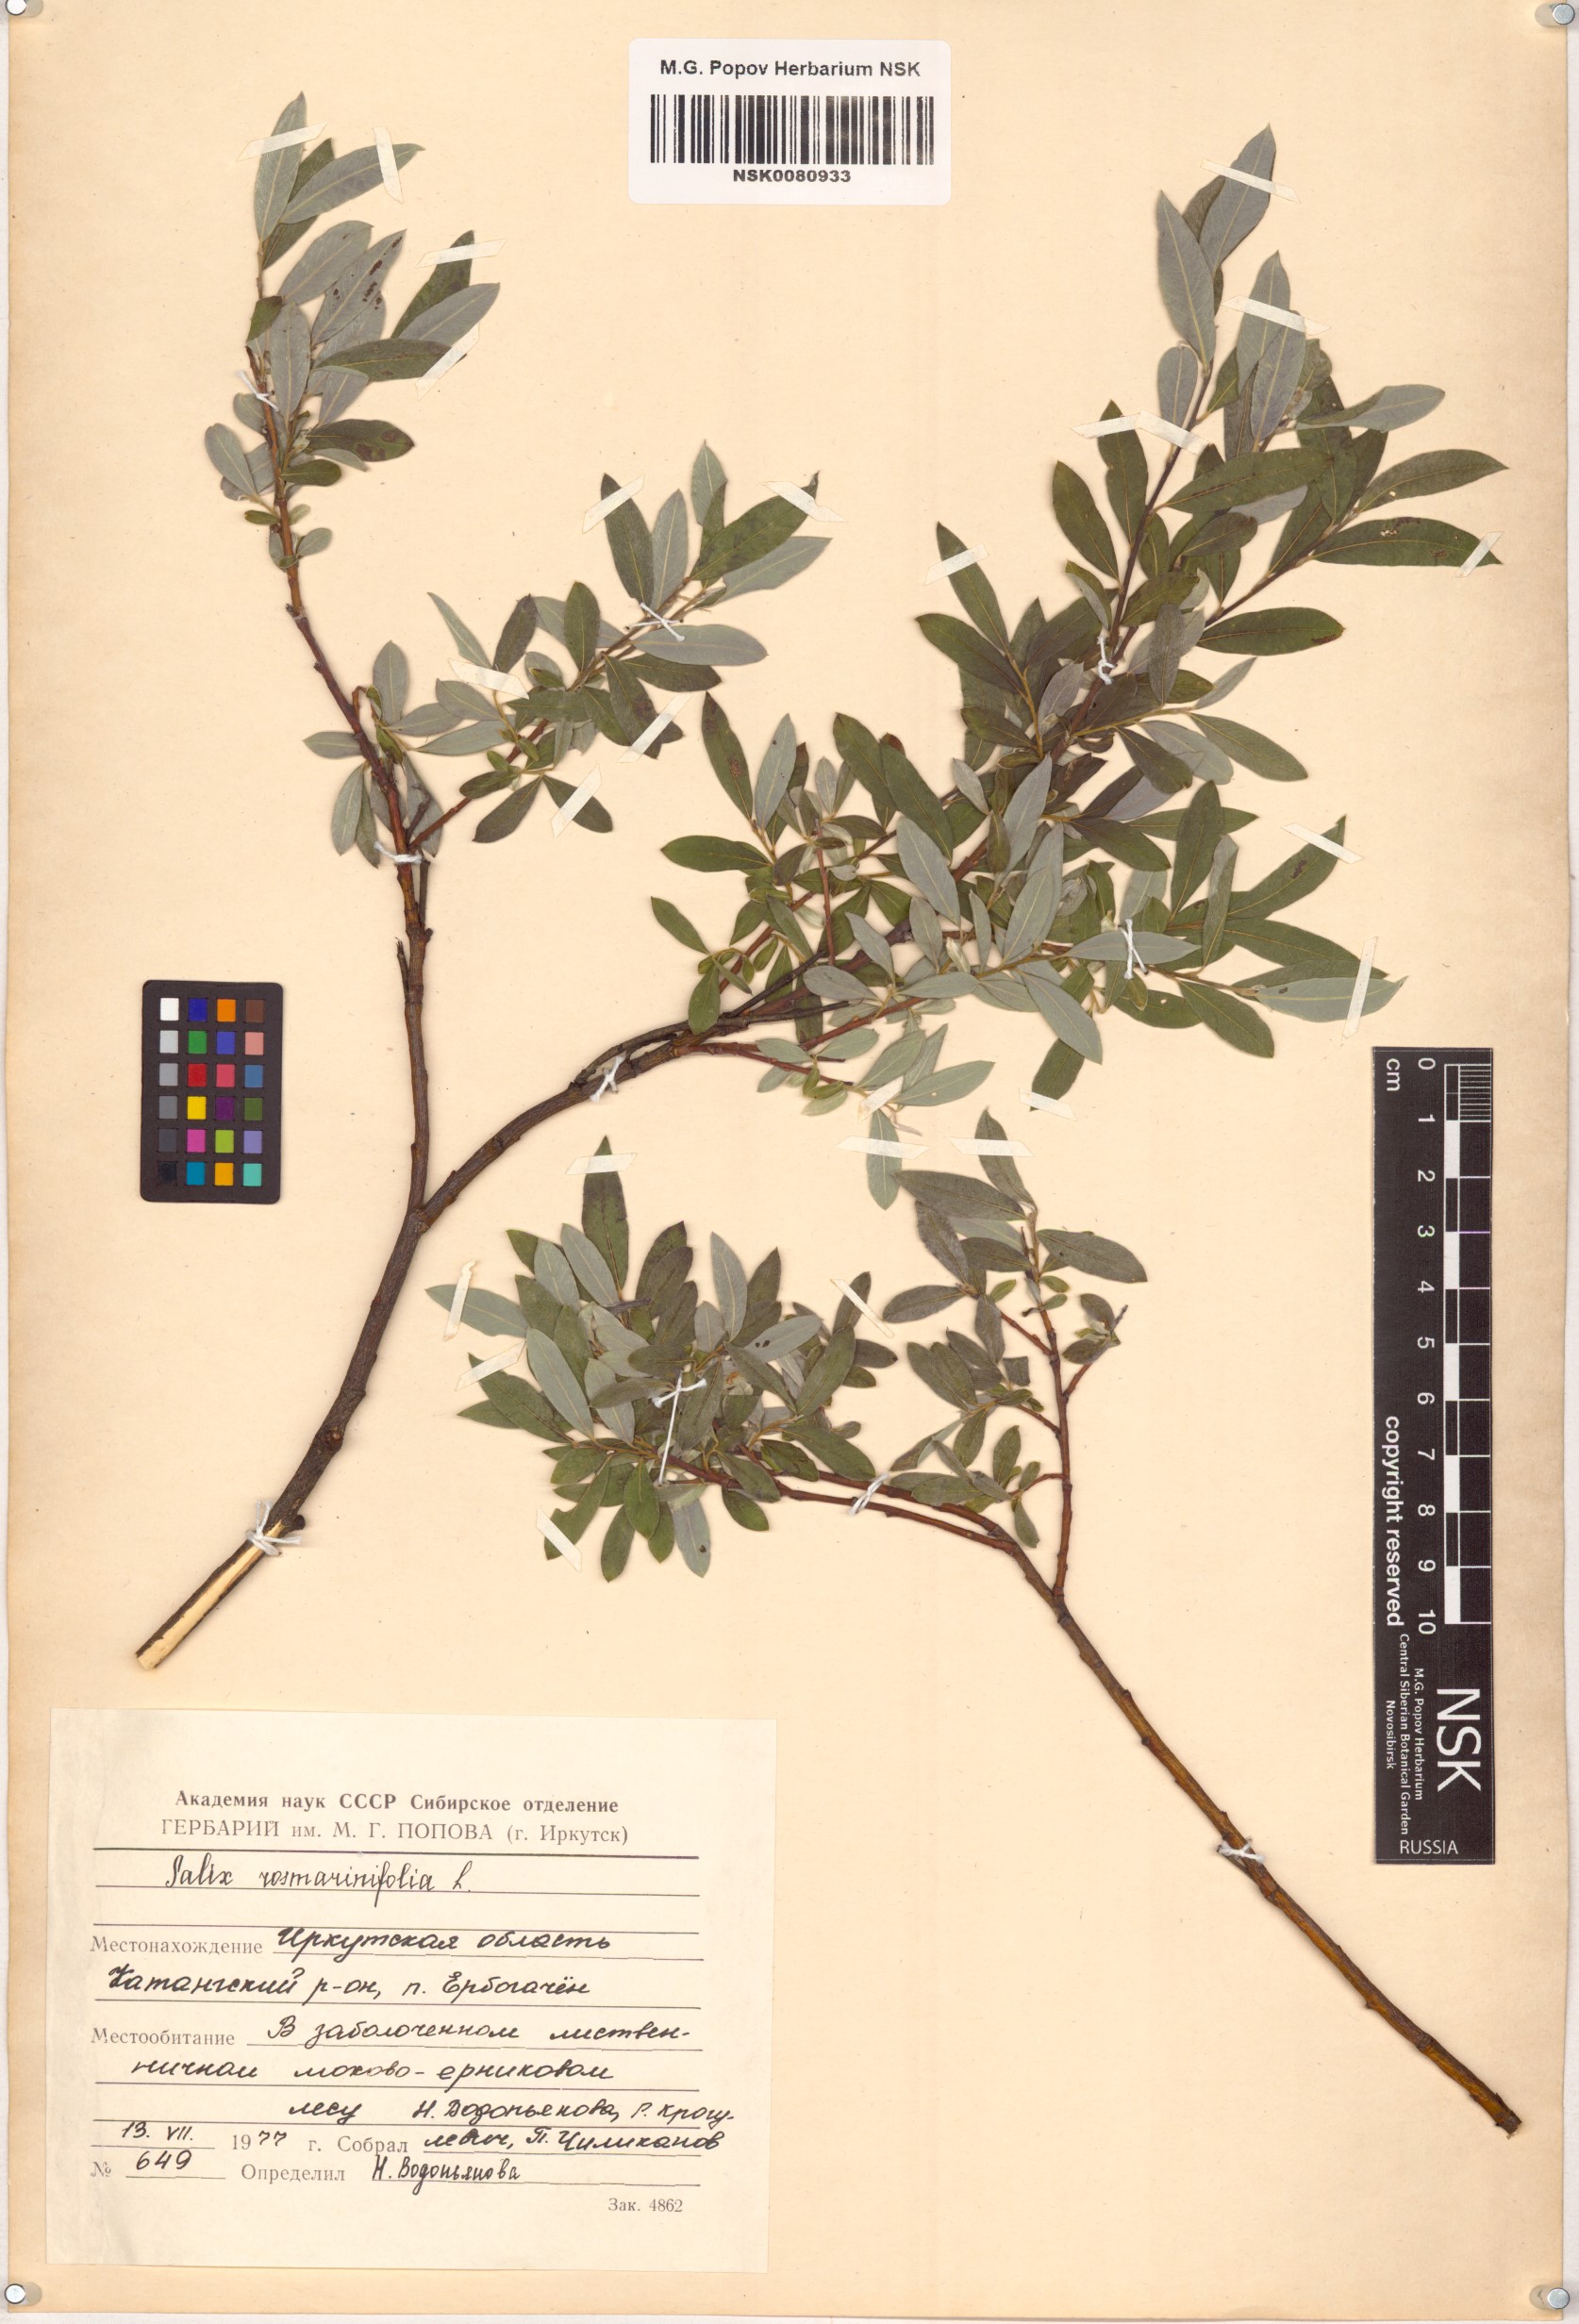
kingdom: Plantae
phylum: Tracheophyta
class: Magnoliopsida
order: Malpighiales
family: Salicaceae
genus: Salix
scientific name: Salix rosmarinifolia
